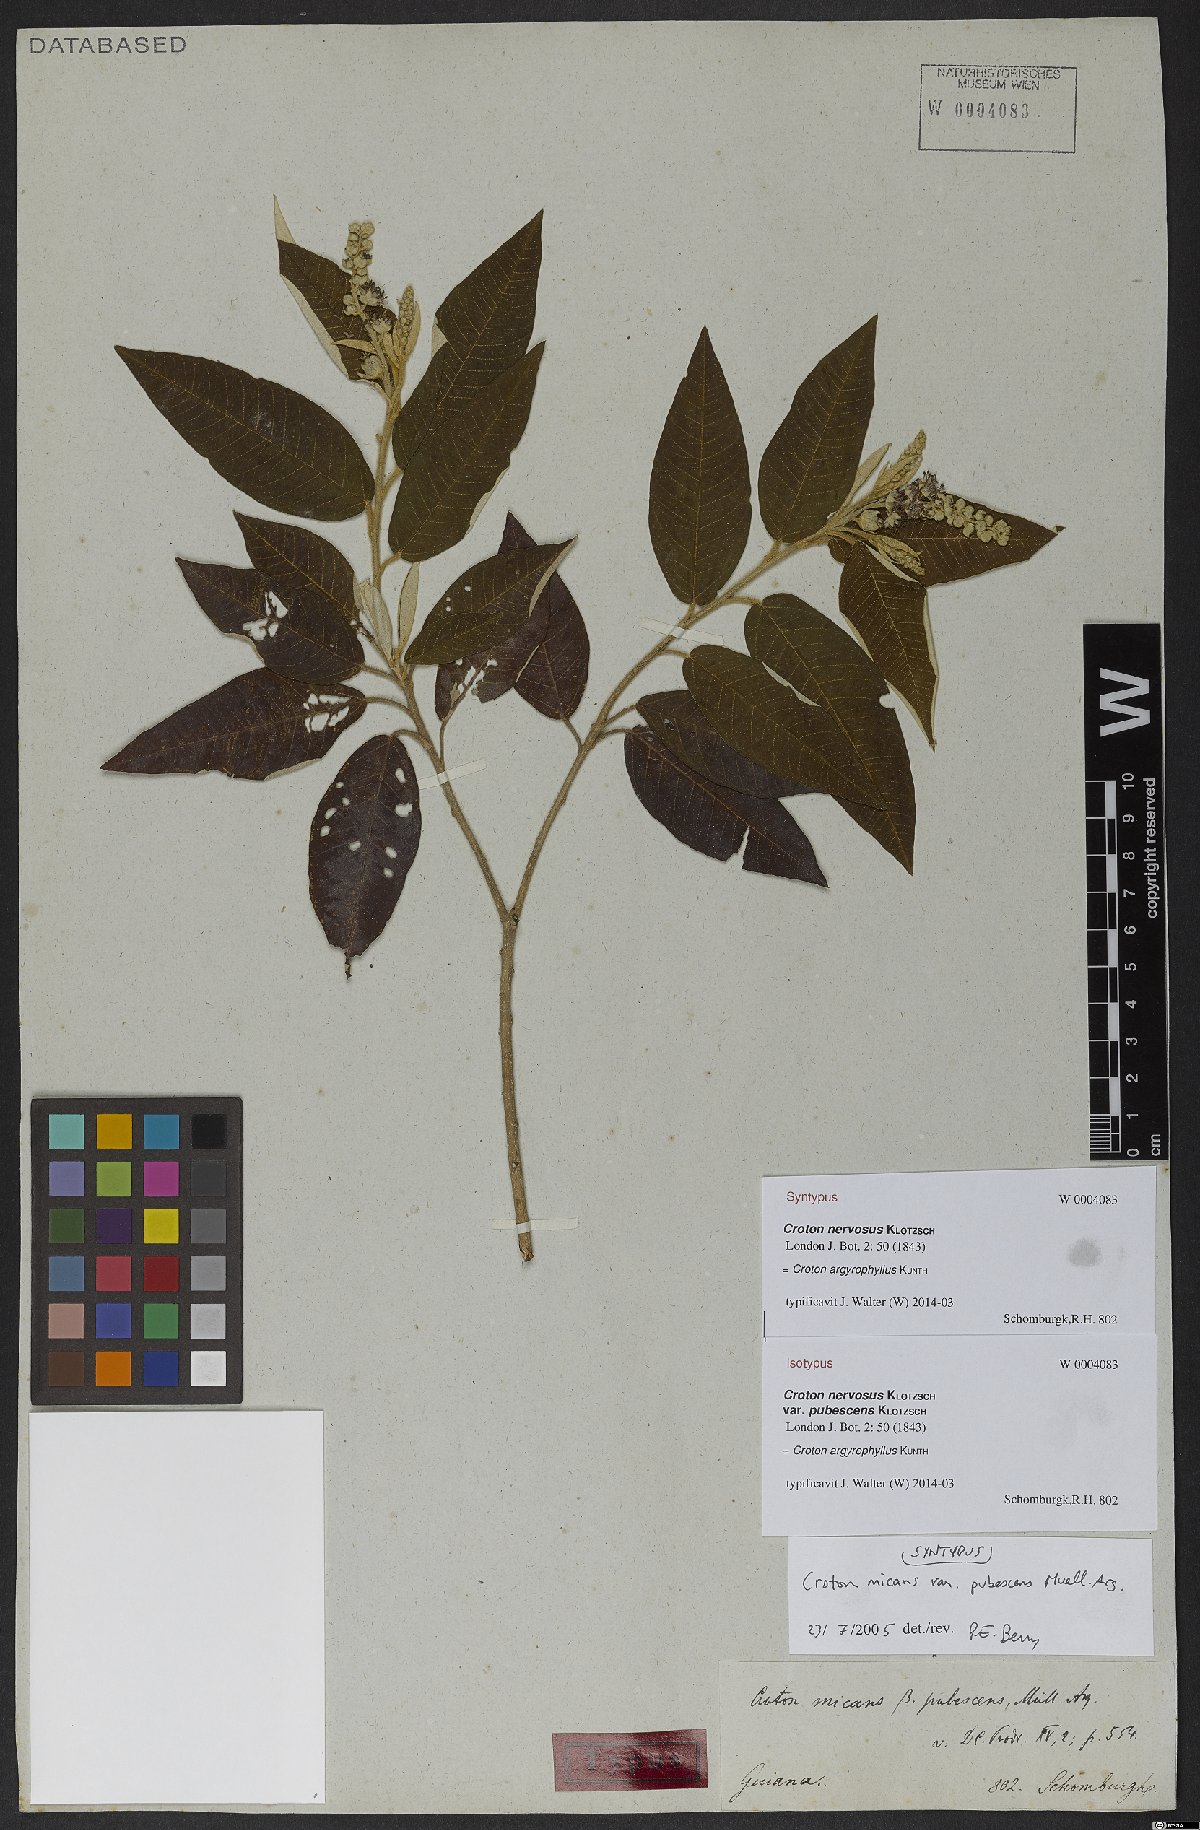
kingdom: Plantae
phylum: Tracheophyta
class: Magnoliopsida
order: Malpighiales
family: Euphorbiaceae
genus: Croton
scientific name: Croton argyrophyllus
